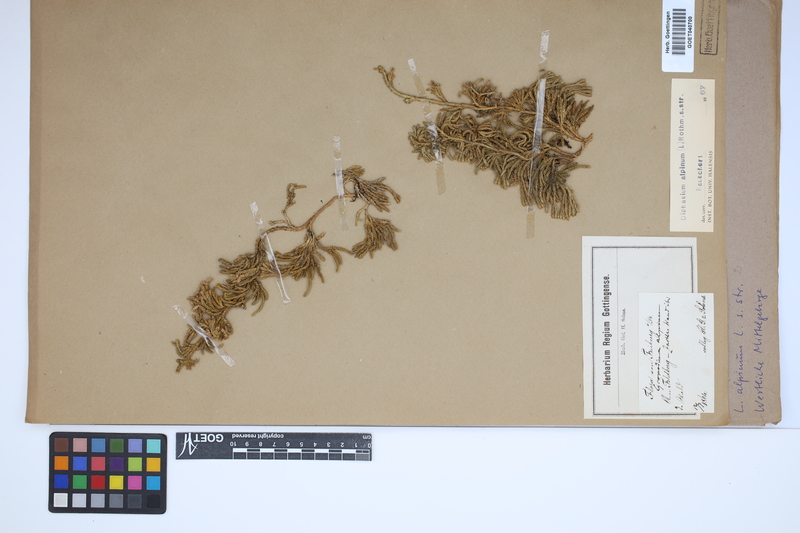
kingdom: Plantae
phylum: Tracheophyta
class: Lycopodiopsida
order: Lycopodiales
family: Lycopodiaceae
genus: Diphasiastrum
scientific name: Diphasiastrum alpinum
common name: Alpine clubmoss
